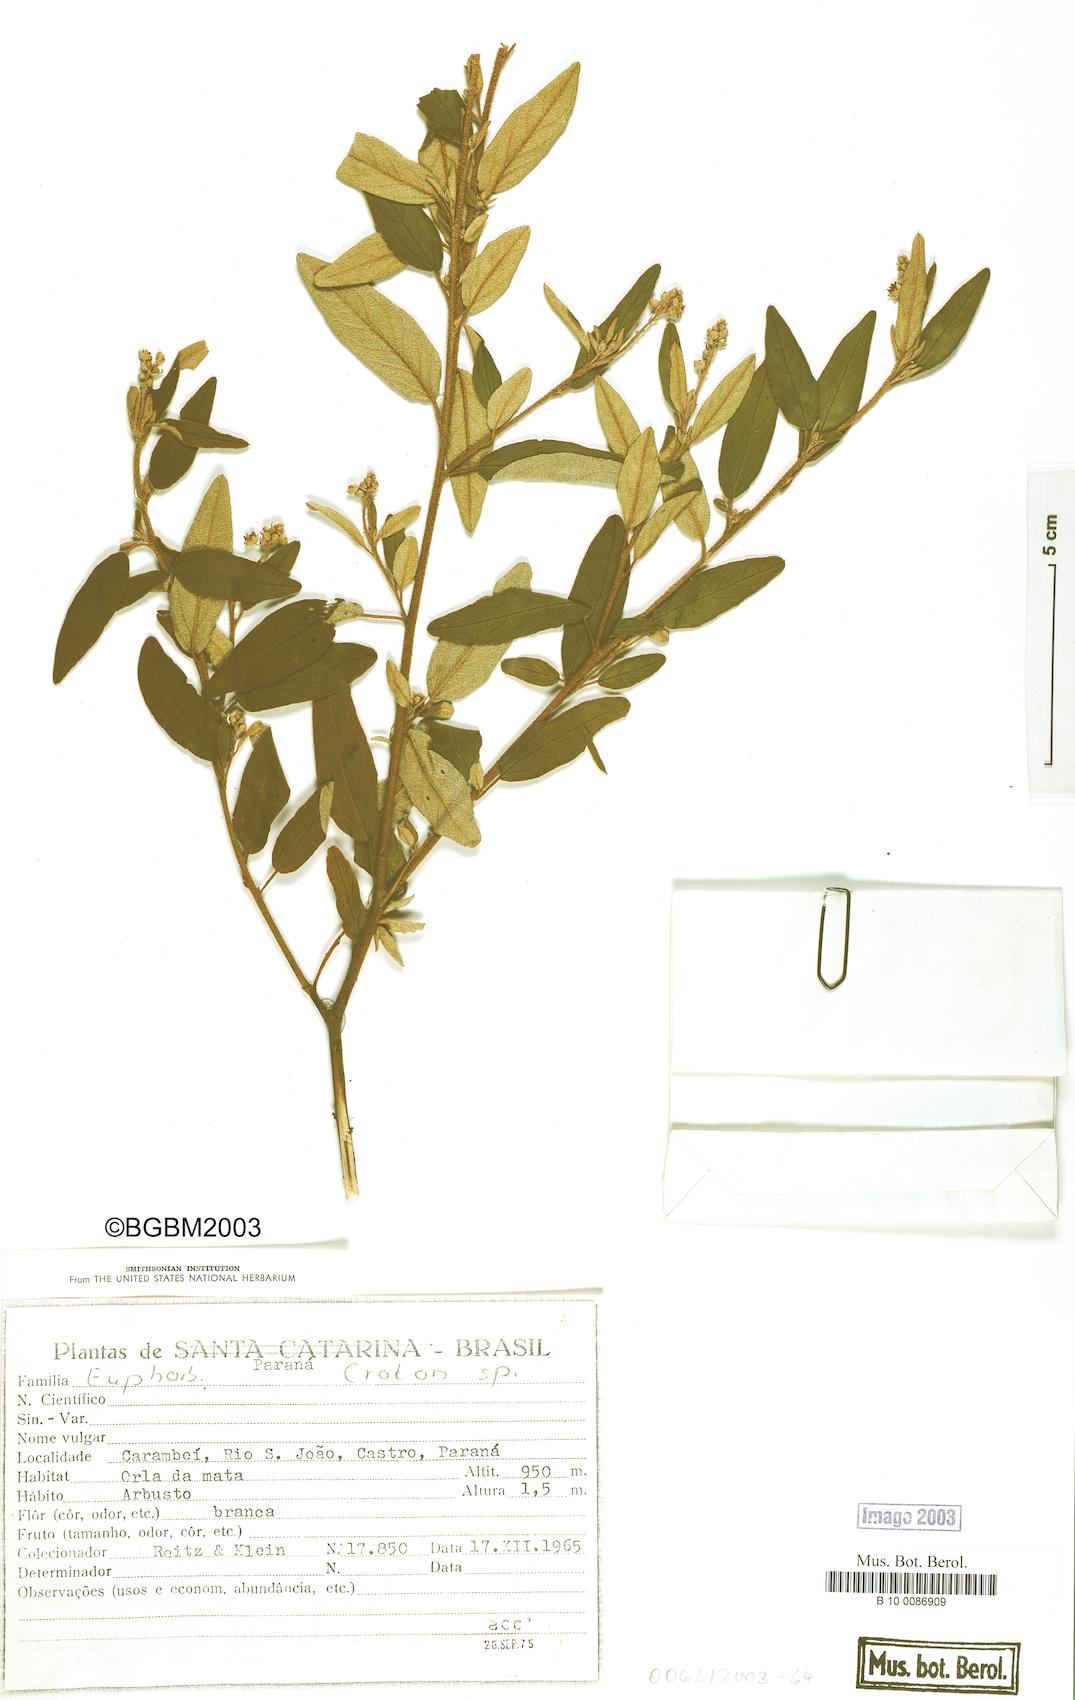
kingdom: Plantae
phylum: Tracheophyta
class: Magnoliopsida
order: Malpighiales
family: Euphorbiaceae
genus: Croton
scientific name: Croton
